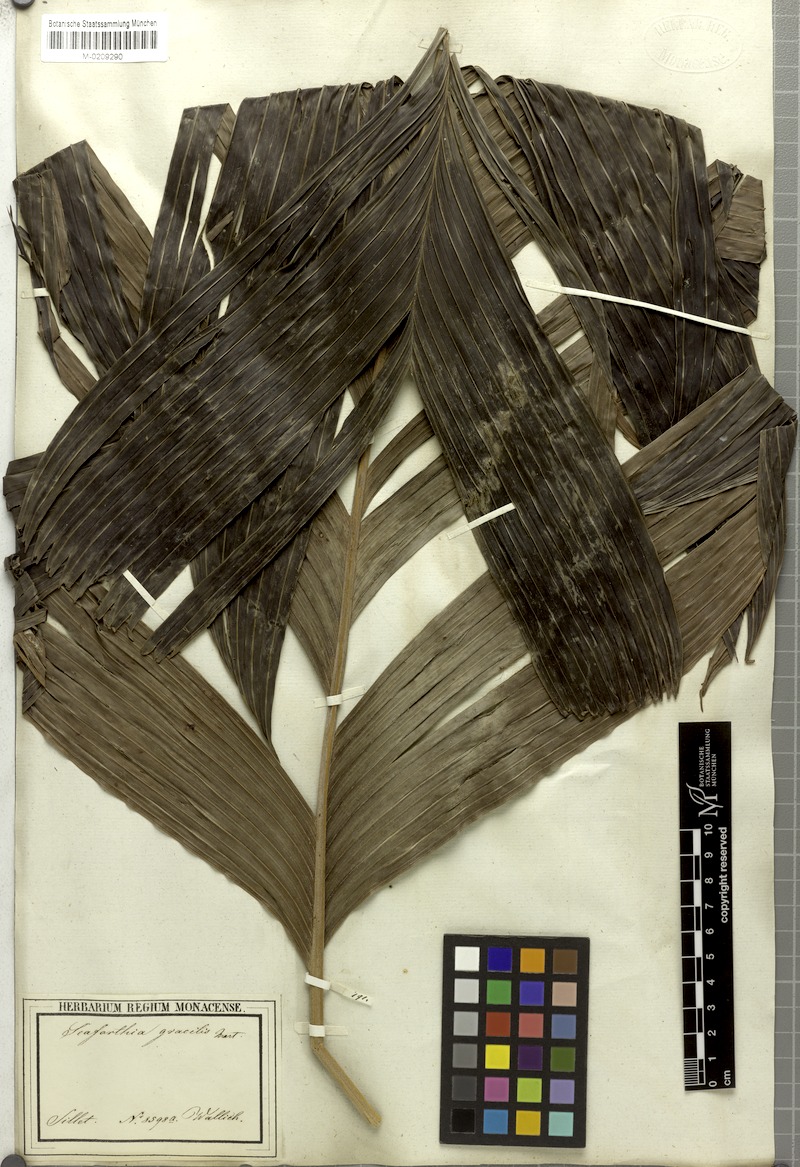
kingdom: Plantae
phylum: Tracheophyta
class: Liliopsida
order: Arecales
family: Arecaceae
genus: Pinanga
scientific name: Pinanga gracilis
